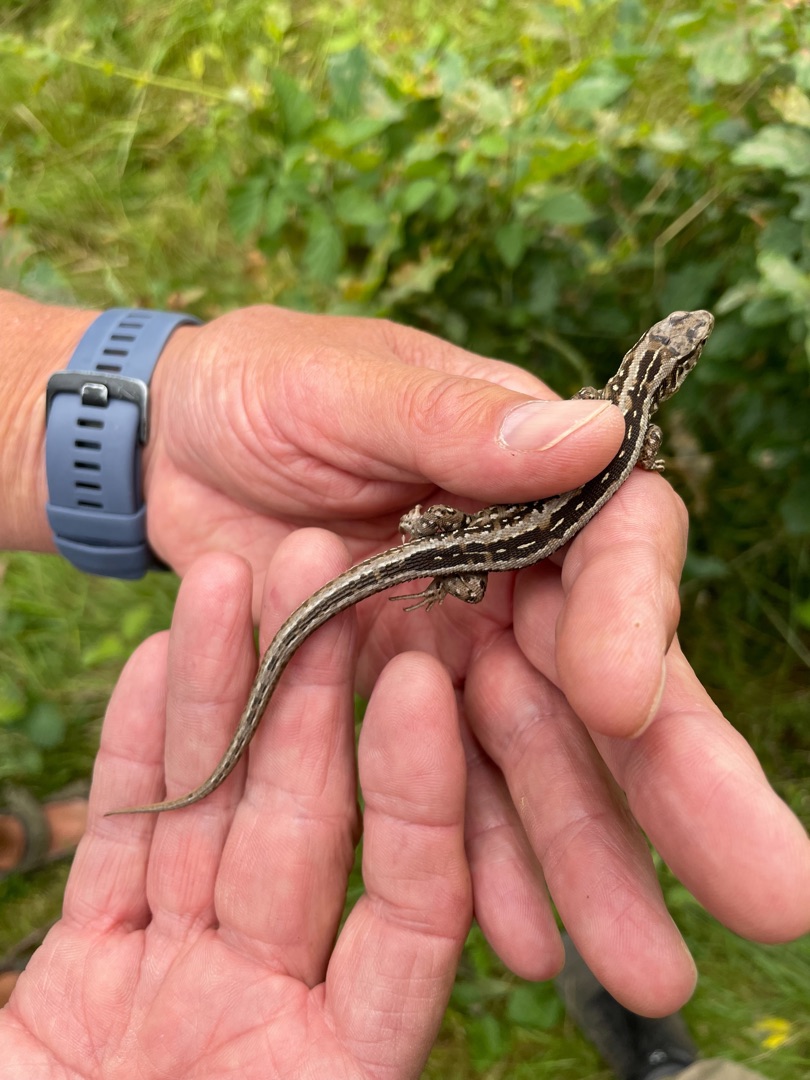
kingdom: Animalia
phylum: Chordata
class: Squamata
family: Lacertidae
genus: Lacerta
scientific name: Lacerta agilis
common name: Markfirben
